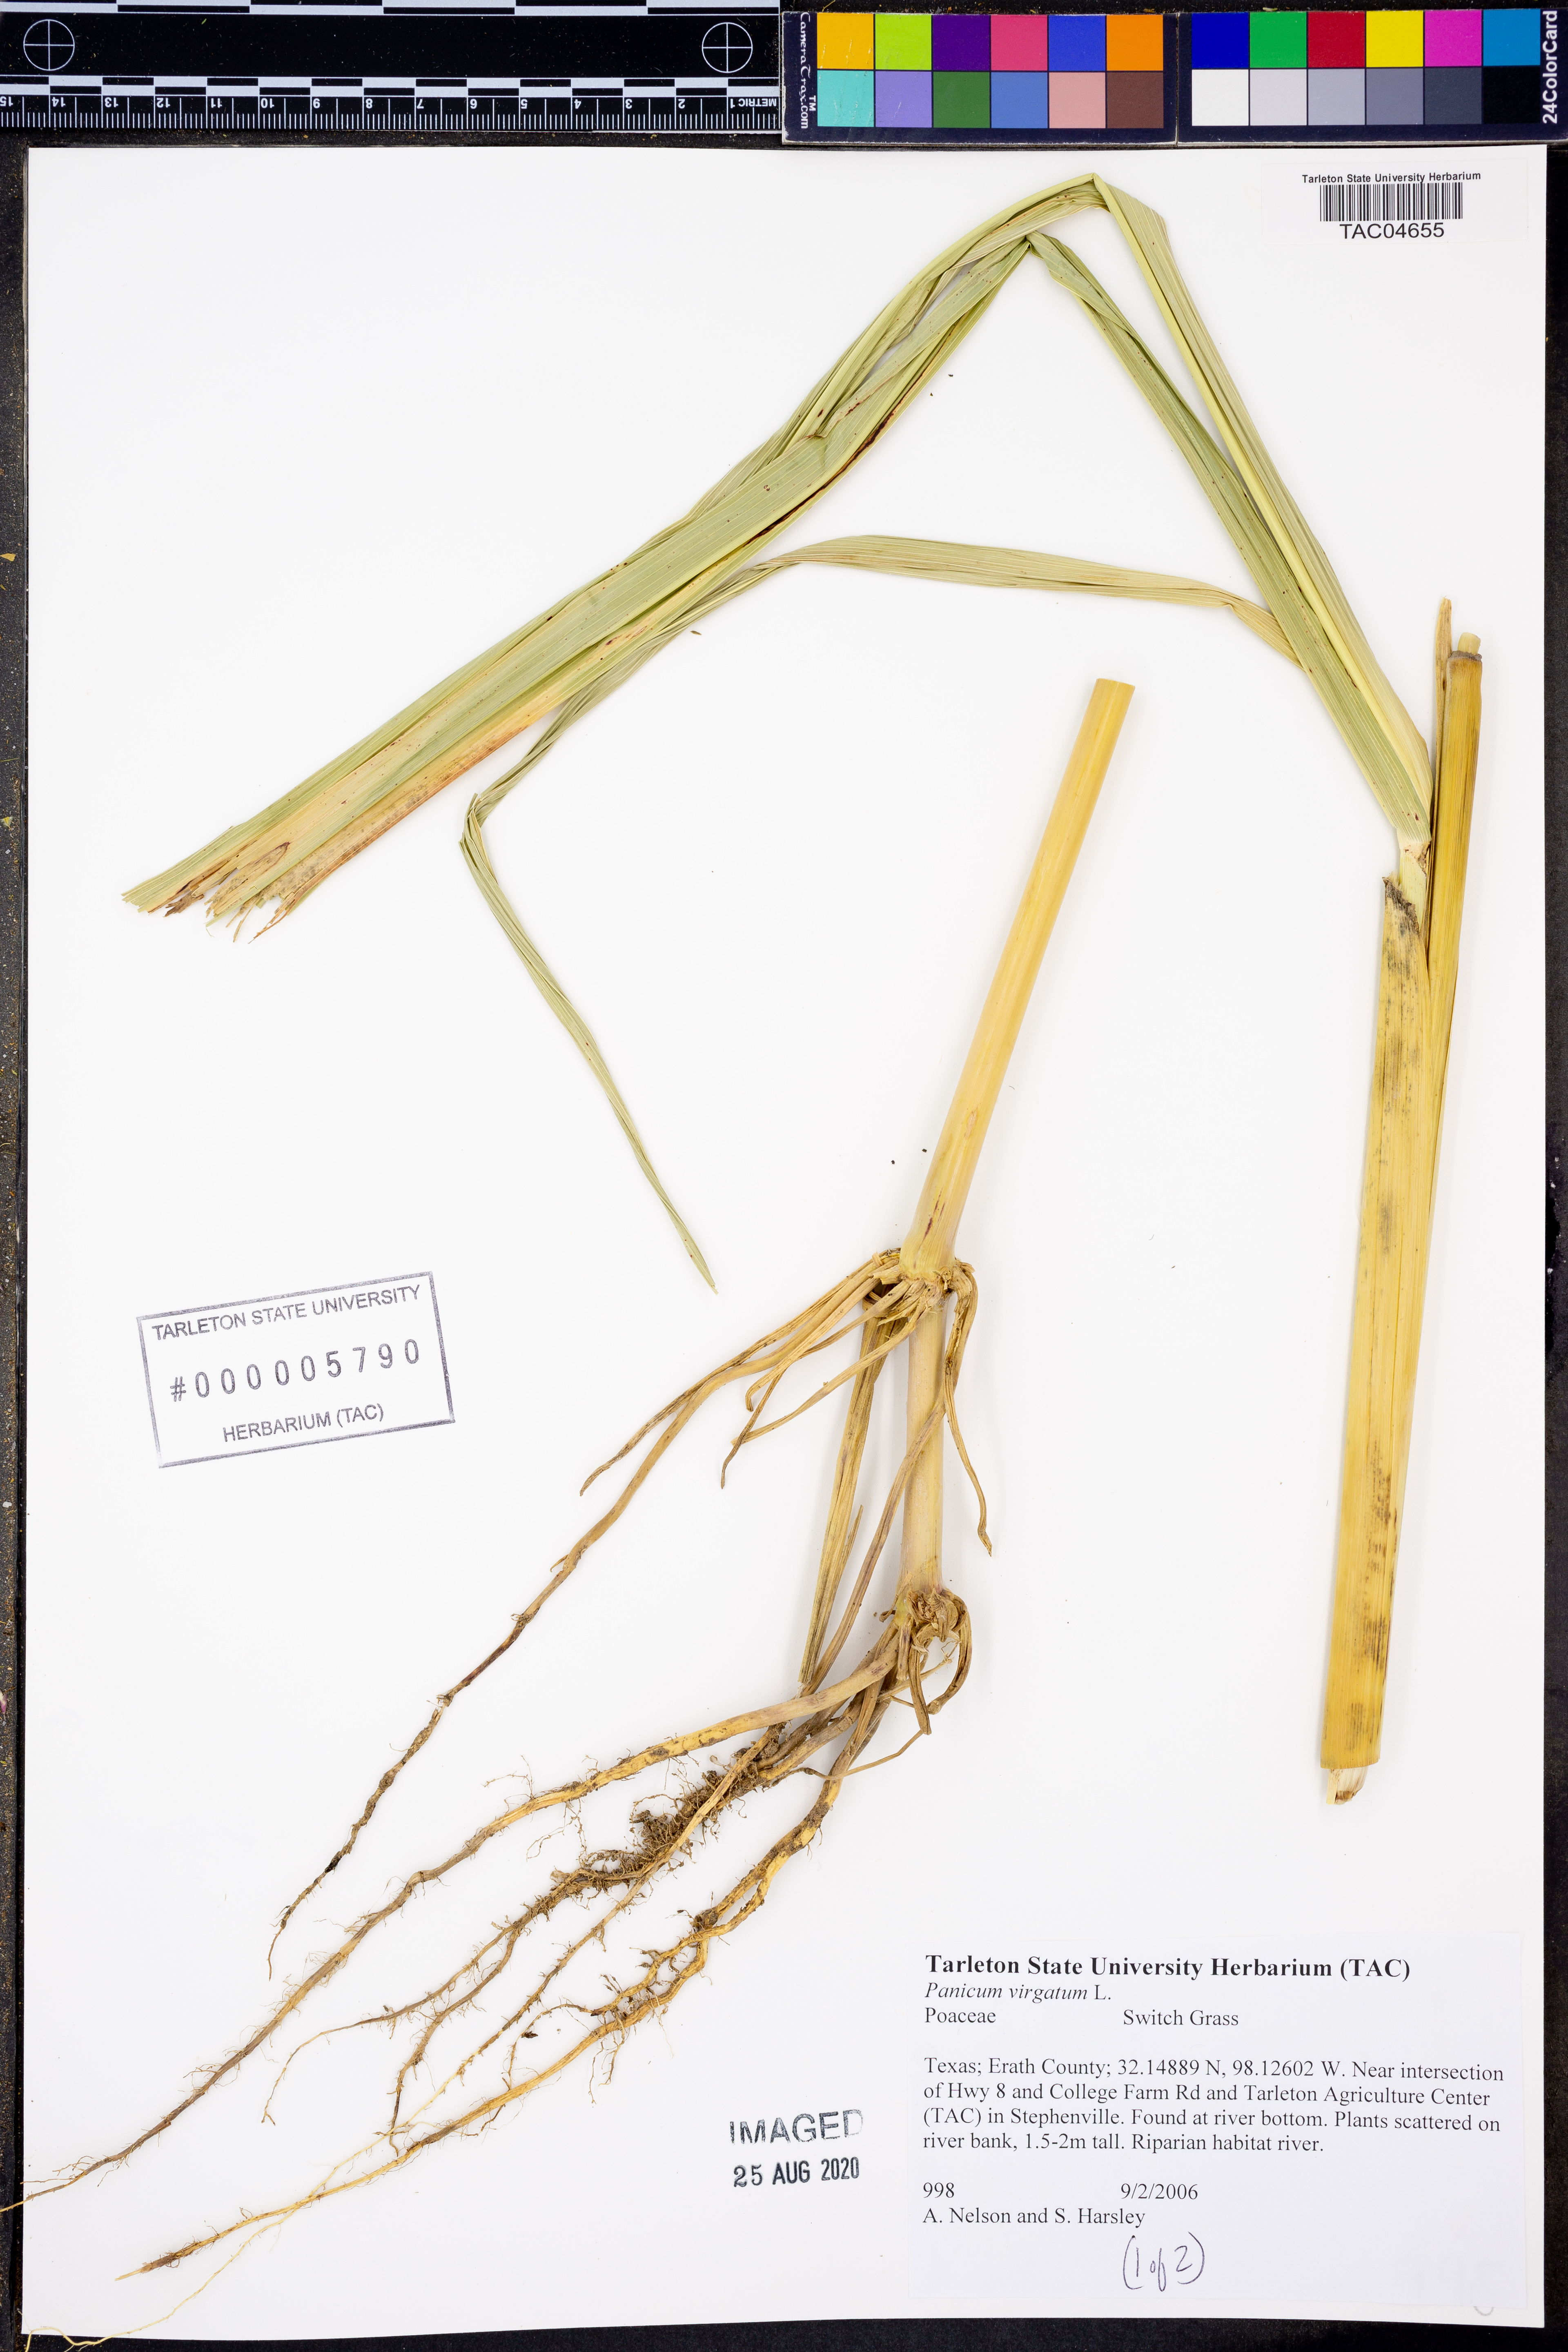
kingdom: Plantae
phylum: Tracheophyta
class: Liliopsida
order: Poales
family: Poaceae
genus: Panicum
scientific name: Panicum virgatum
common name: Switchgrass
